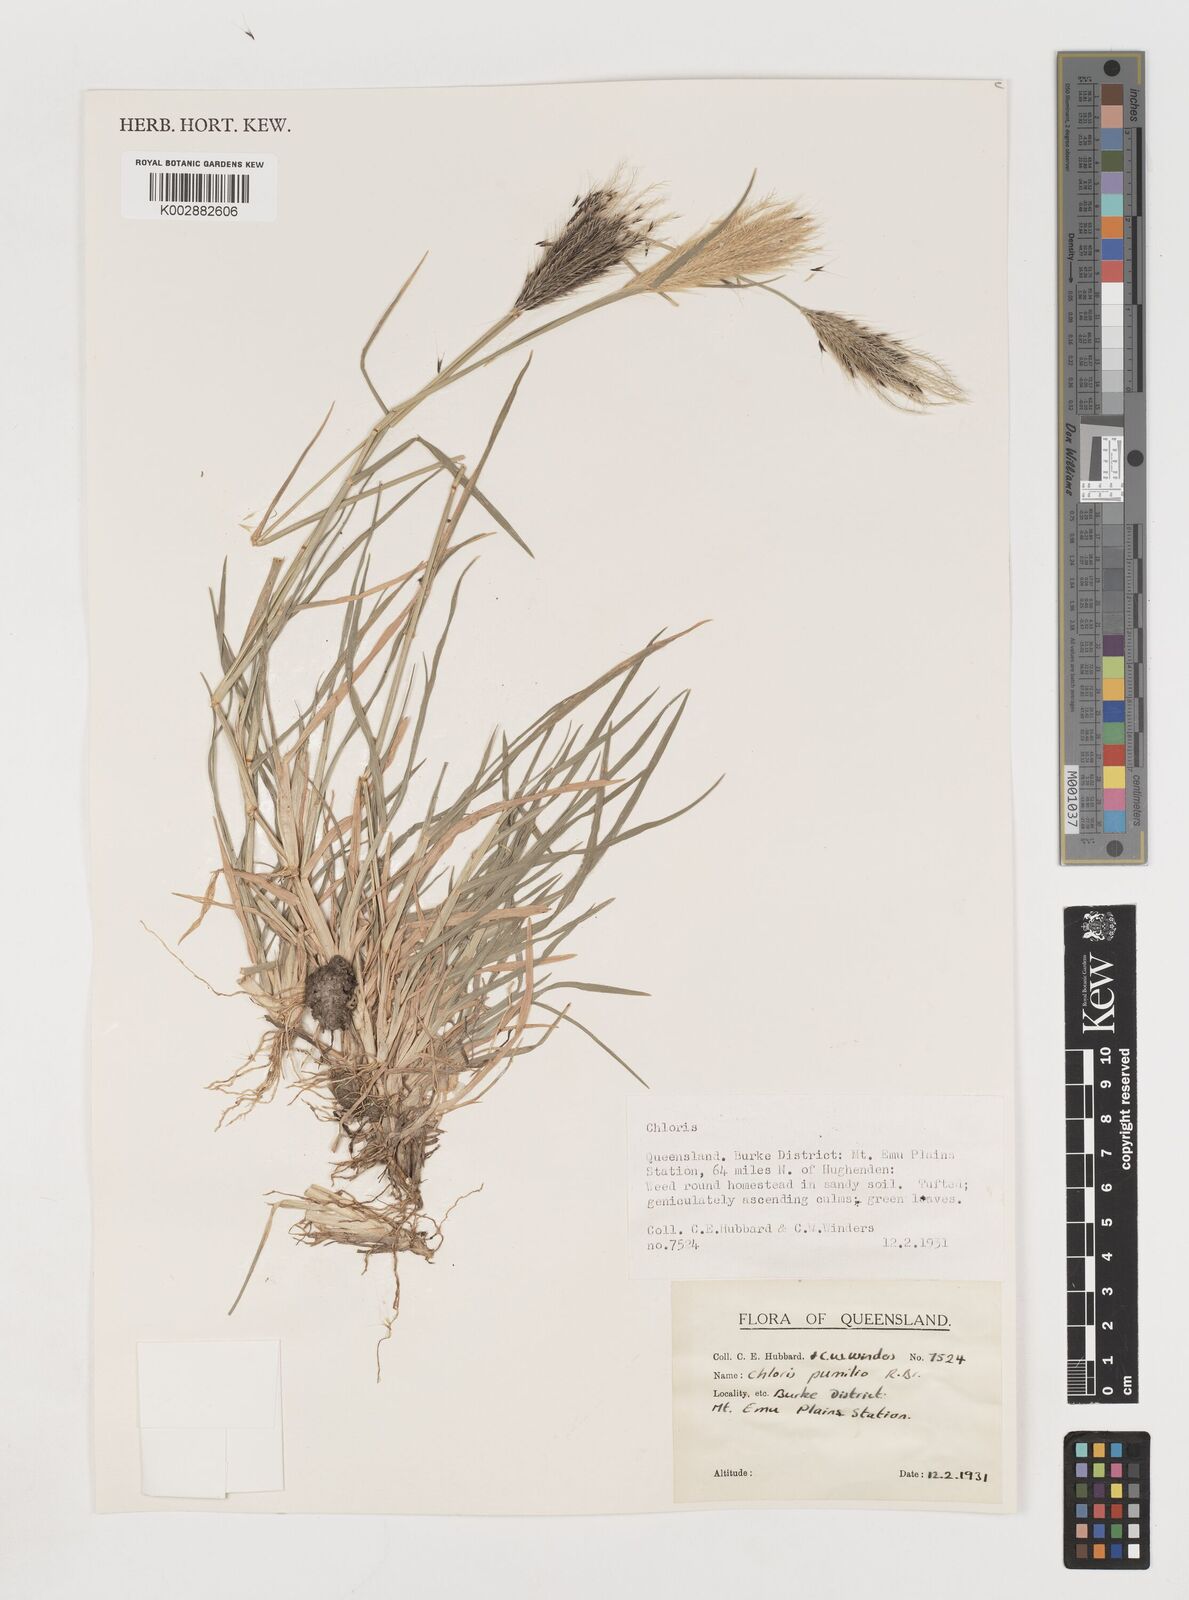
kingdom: Plantae
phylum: Tracheophyta
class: Liliopsida
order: Poales
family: Poaceae
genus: Chloris
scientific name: Chloris pumilio
